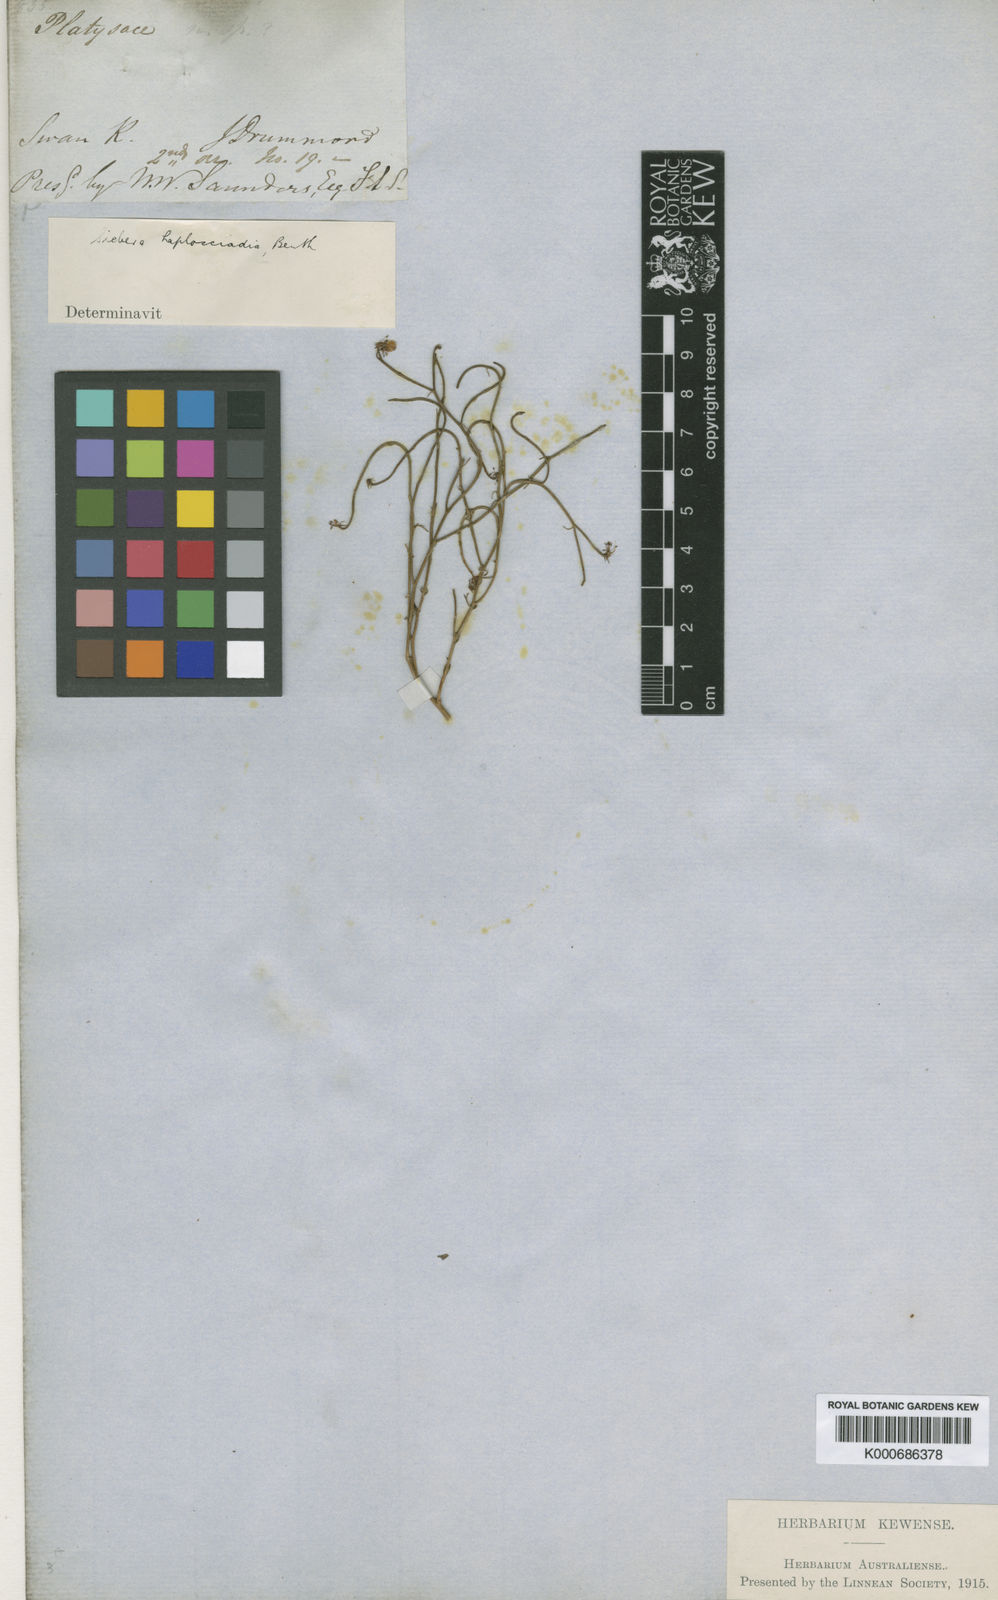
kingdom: Plantae
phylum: Tracheophyta
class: Magnoliopsida
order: Apiales
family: Apiaceae
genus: Platysace
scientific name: Platysace haplosciadia
